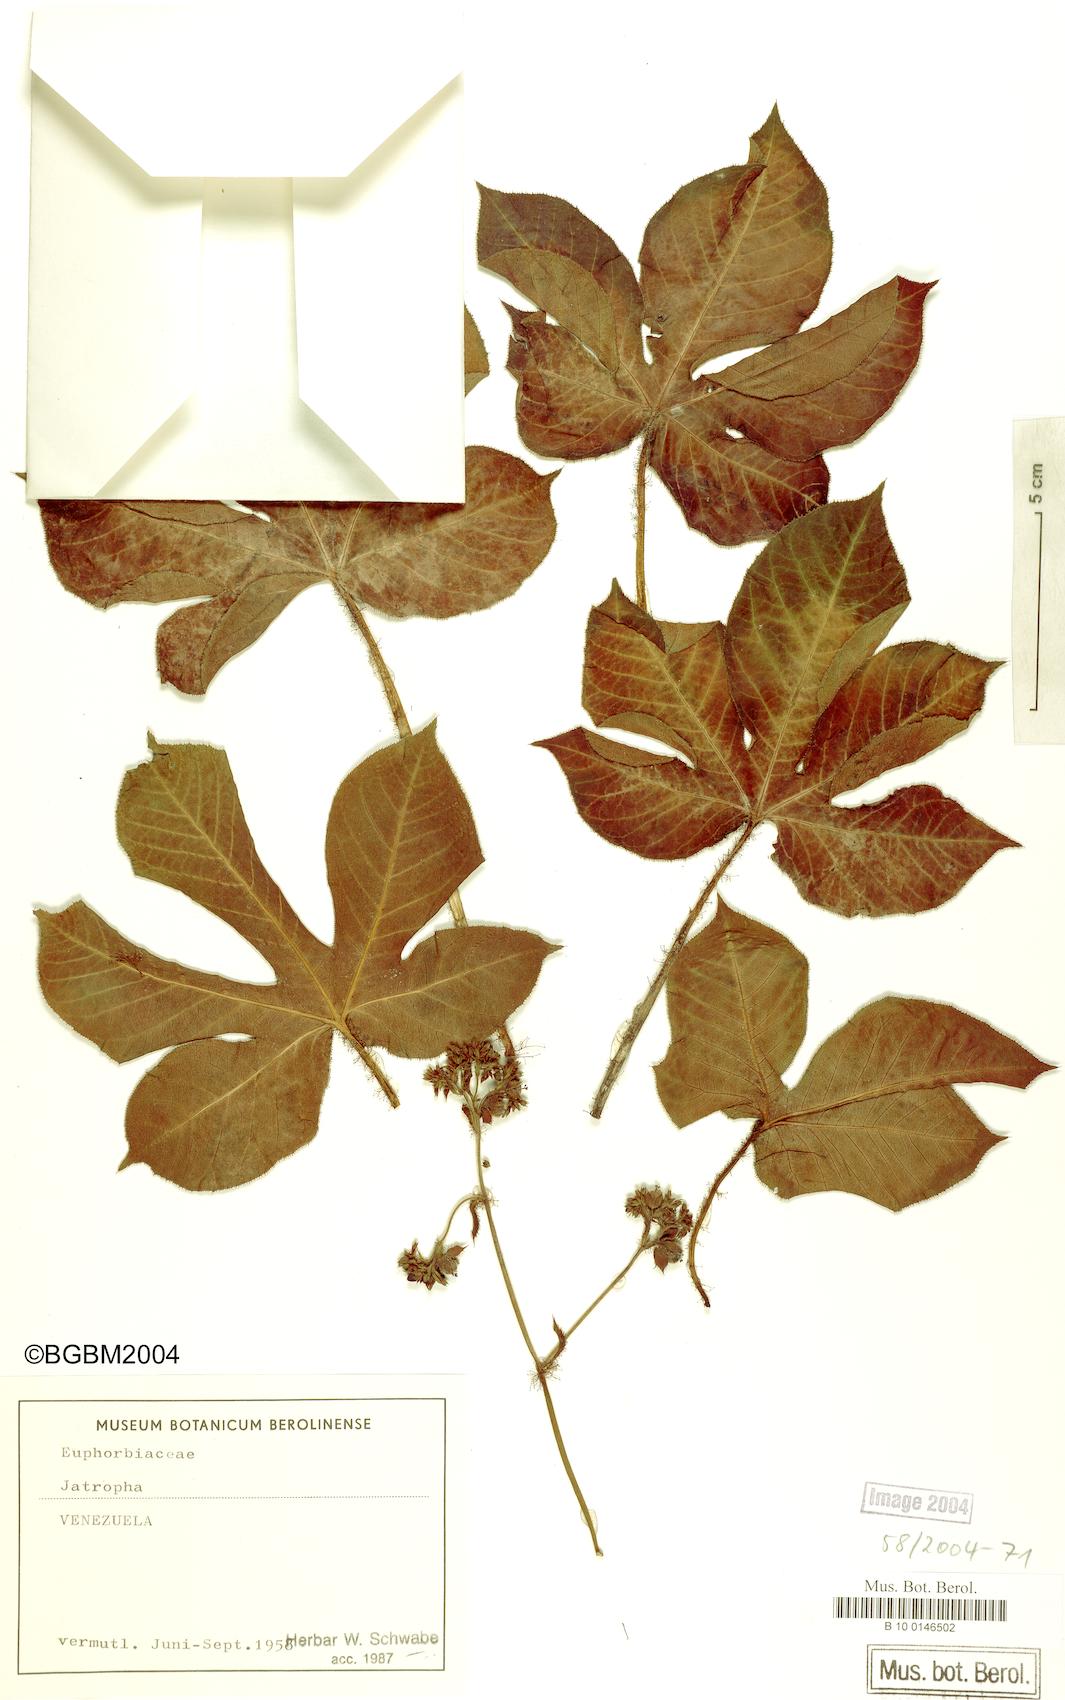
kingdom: Plantae
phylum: Tracheophyta
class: Magnoliopsida
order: Malpighiales
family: Euphorbiaceae
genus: Jatropha
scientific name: Jatropha
